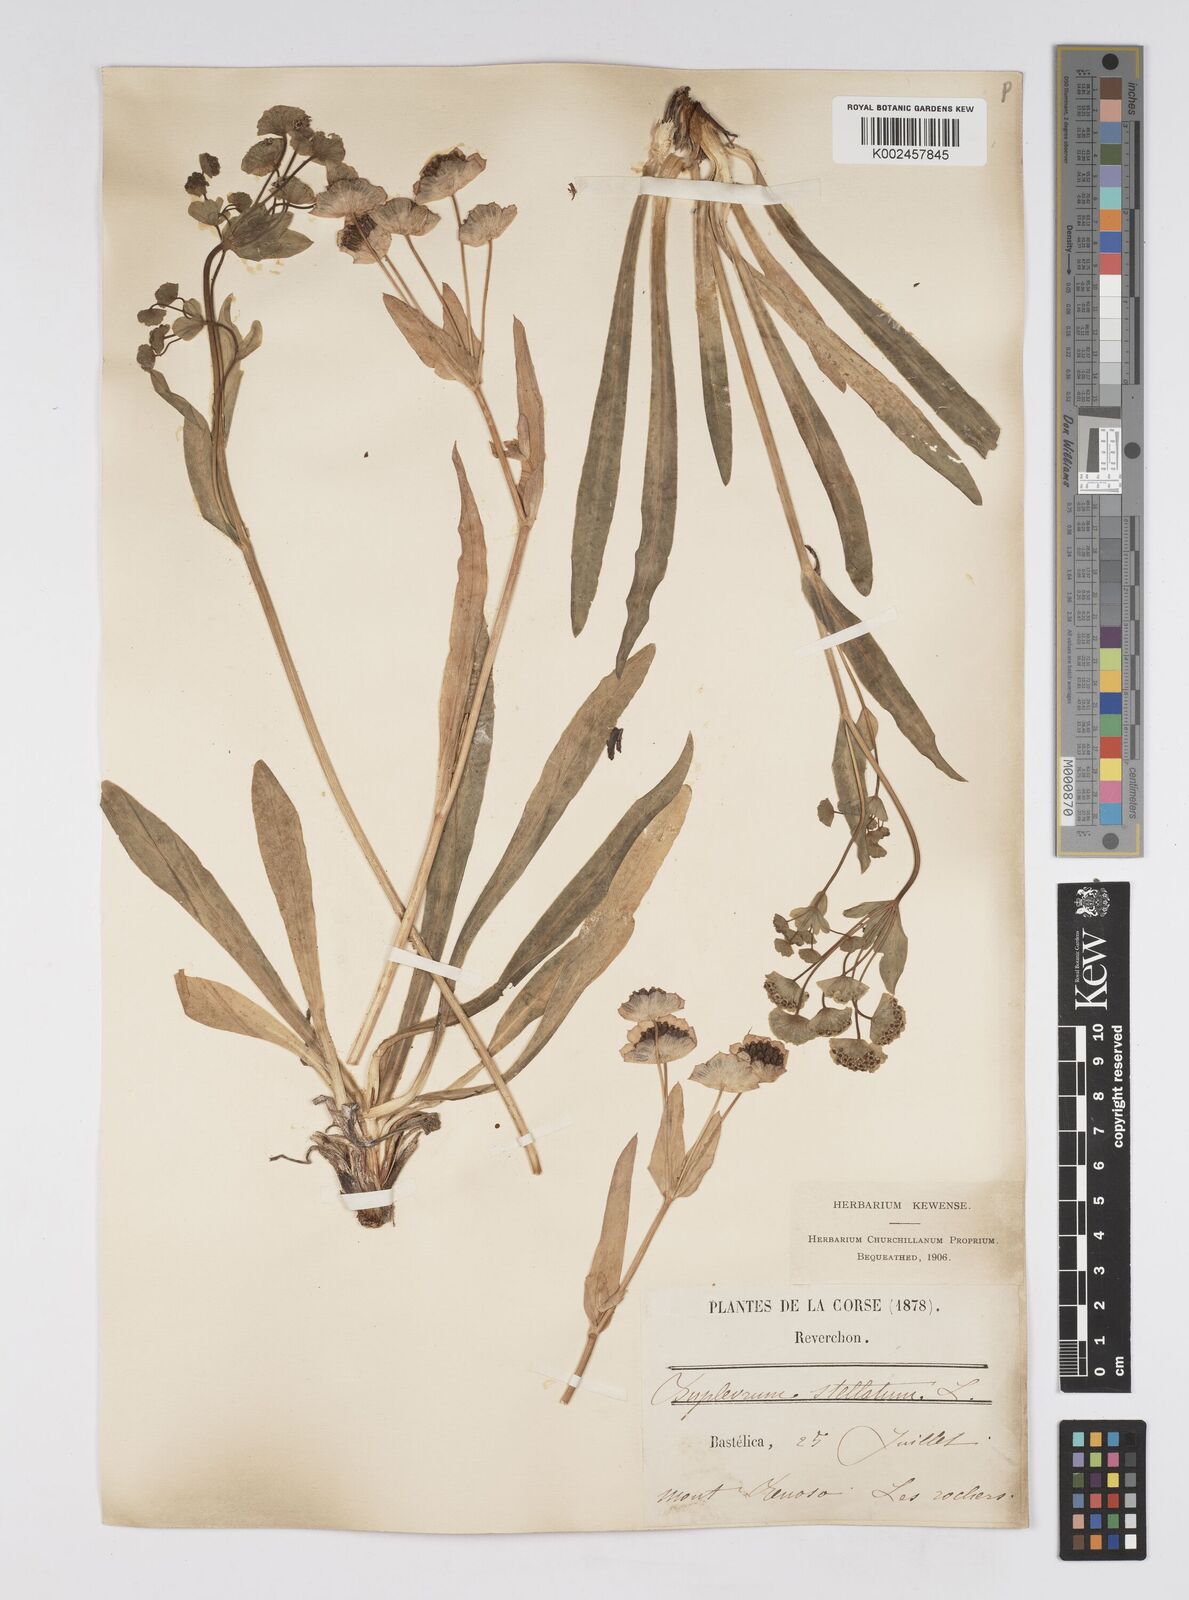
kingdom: Plantae
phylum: Tracheophyta
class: Magnoliopsida
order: Apiales
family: Apiaceae
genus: Bupleurum
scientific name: Bupleurum stellatum
